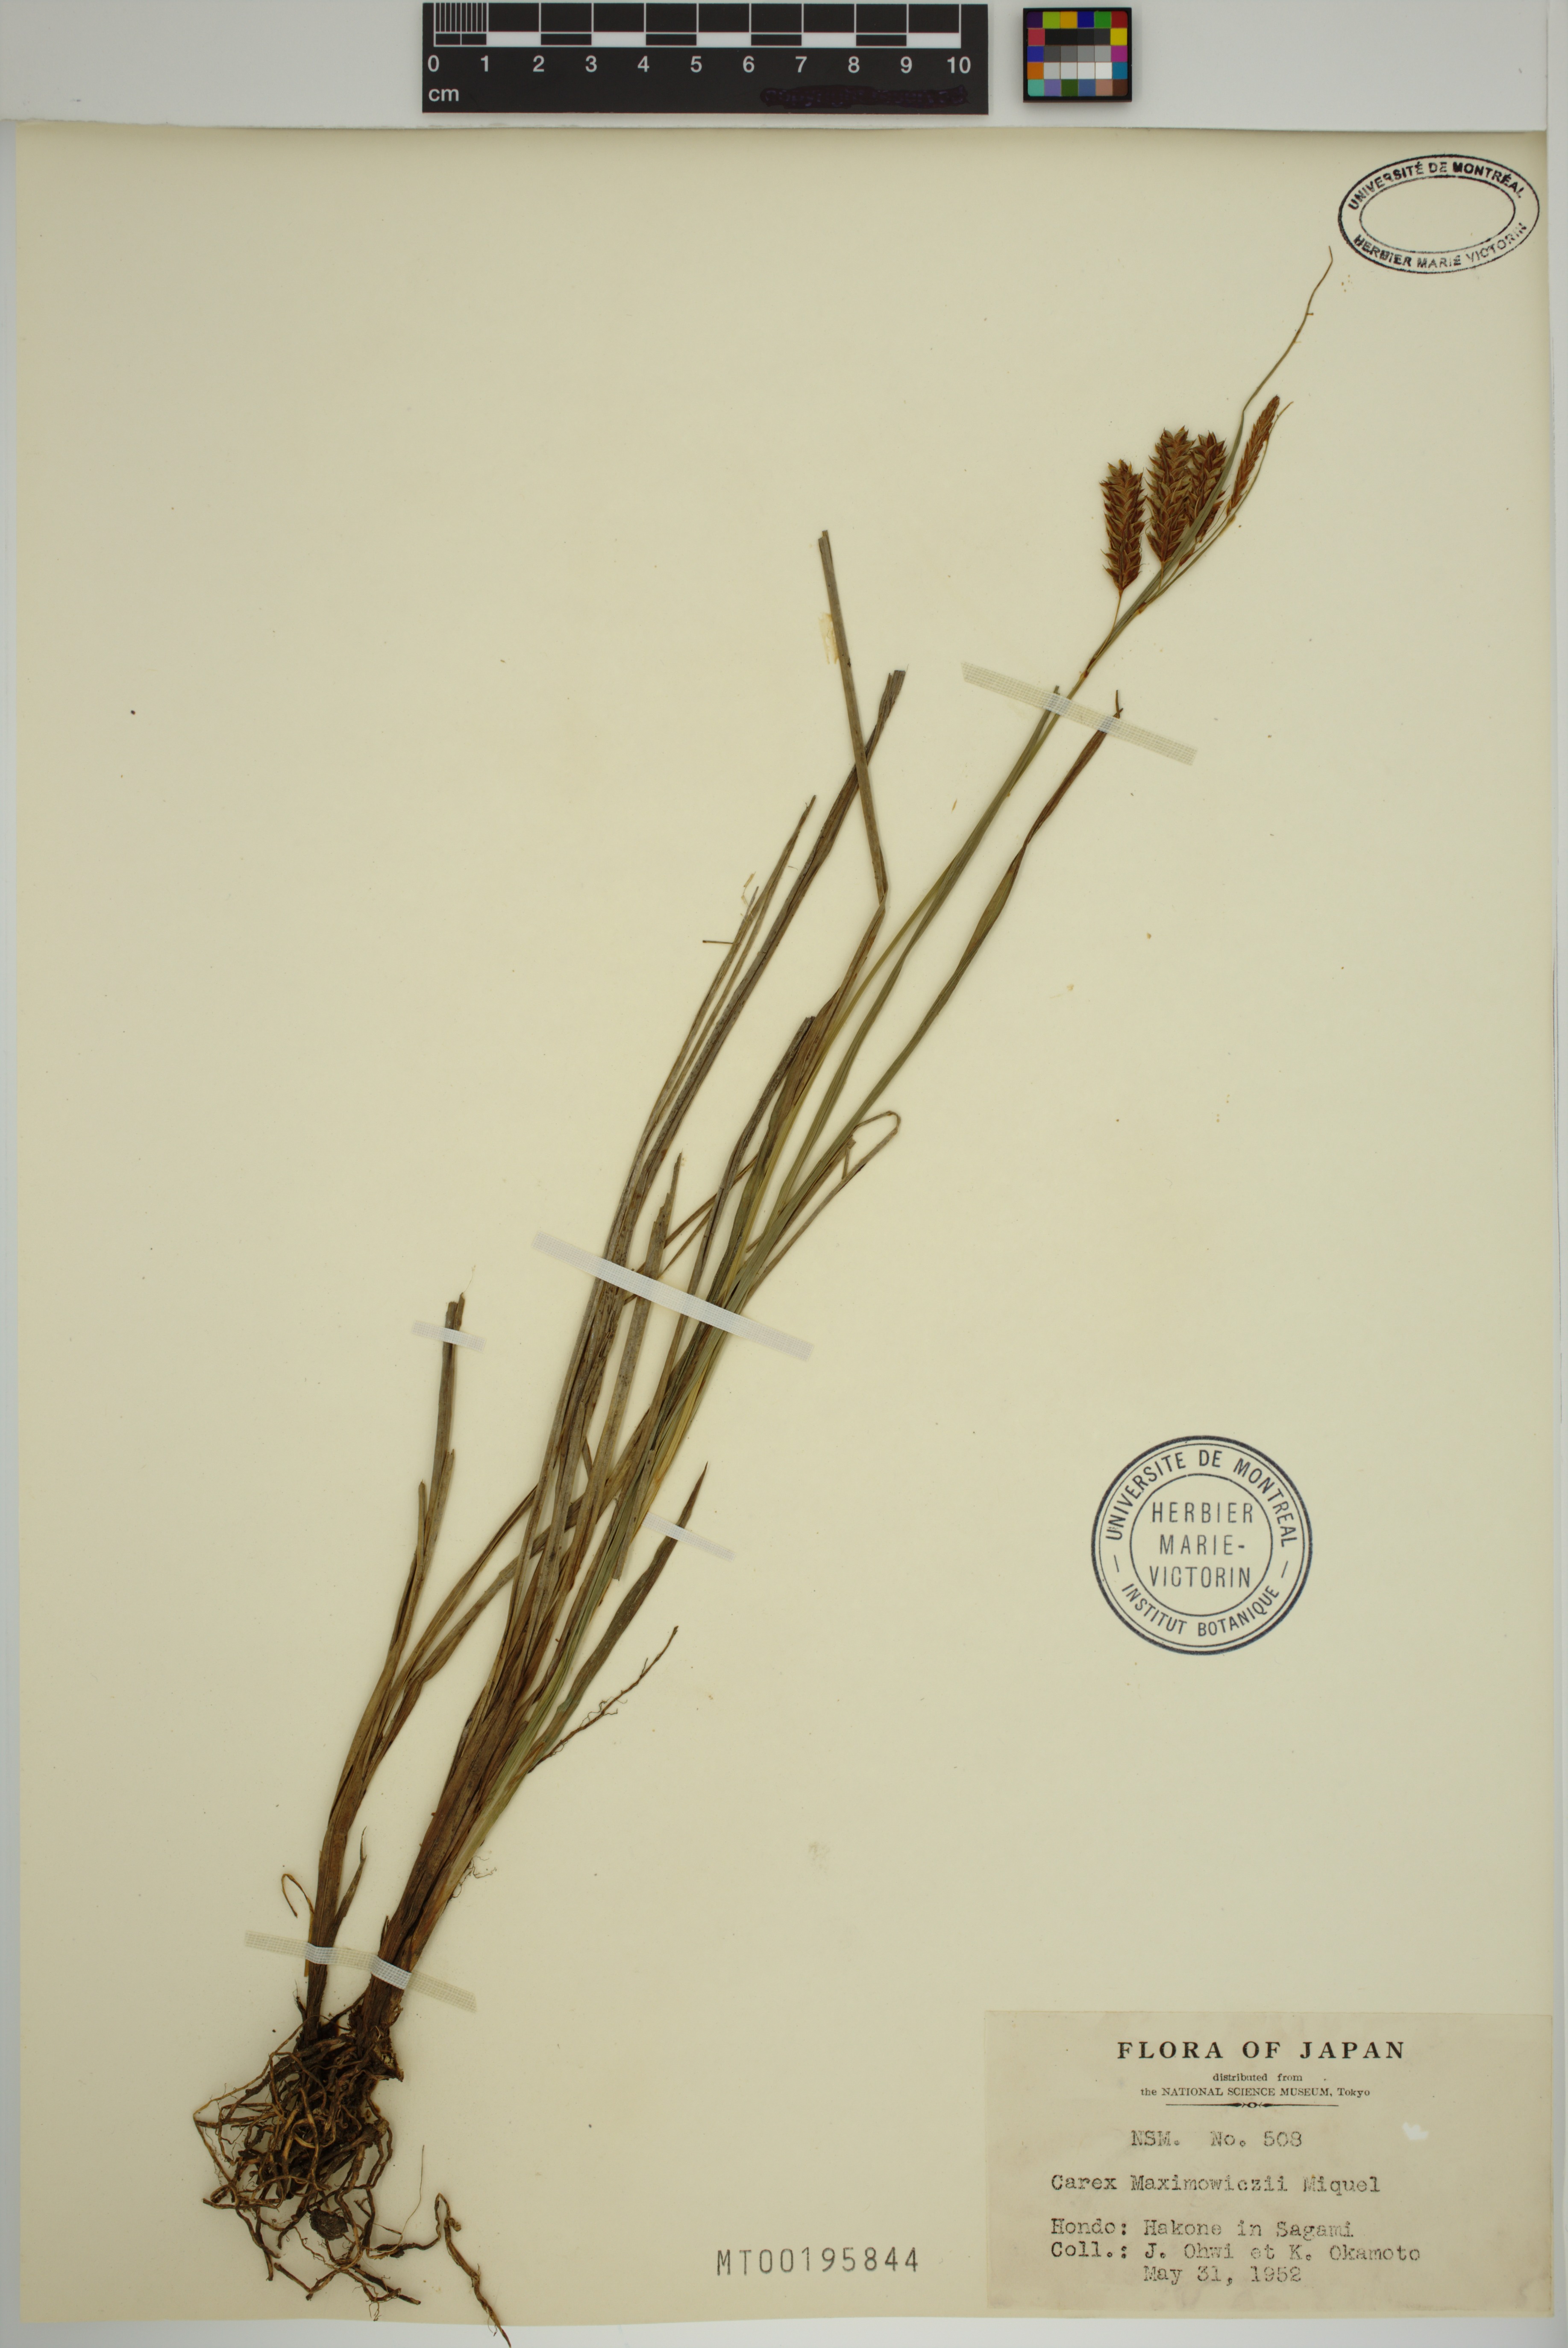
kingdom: Plantae
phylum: Tracheophyta
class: Liliopsida
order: Poales
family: Cyperaceae
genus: Carex
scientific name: Carex maximowiczii
